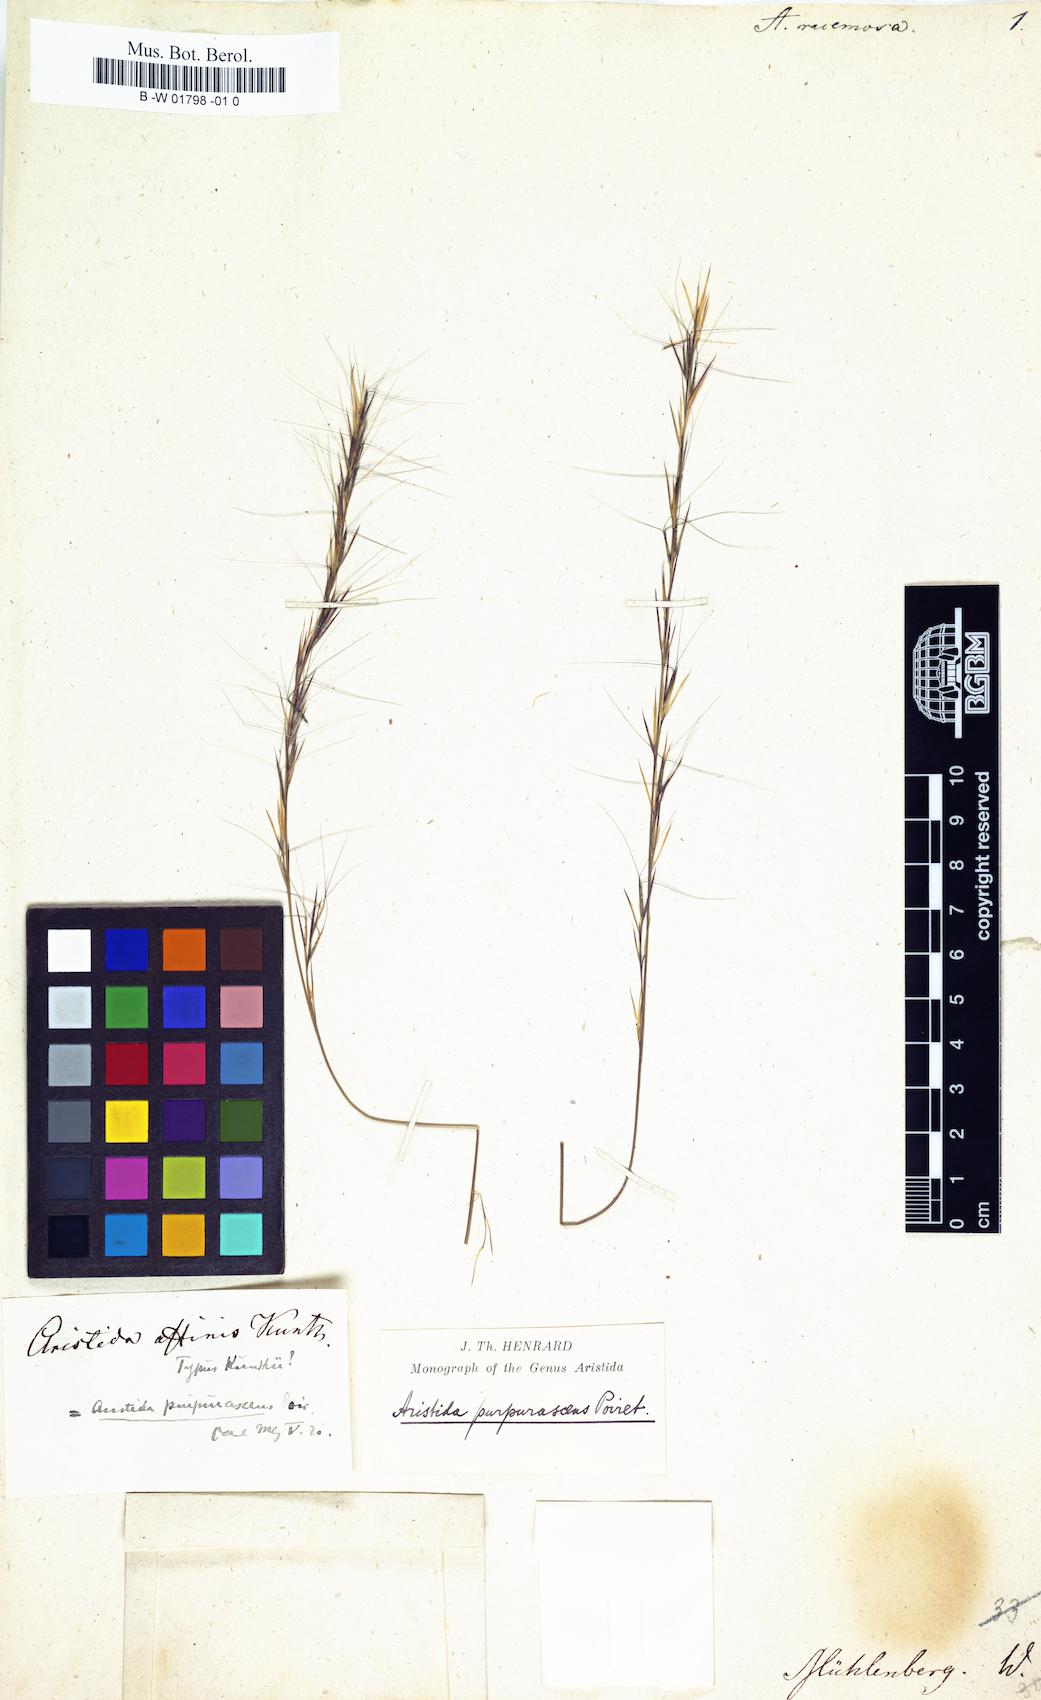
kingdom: Plantae
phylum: Tracheophyta
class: Liliopsida
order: Poales
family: Poaceae
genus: Aristida
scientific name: Aristida adscensionis
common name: Sixweeks threeawn
